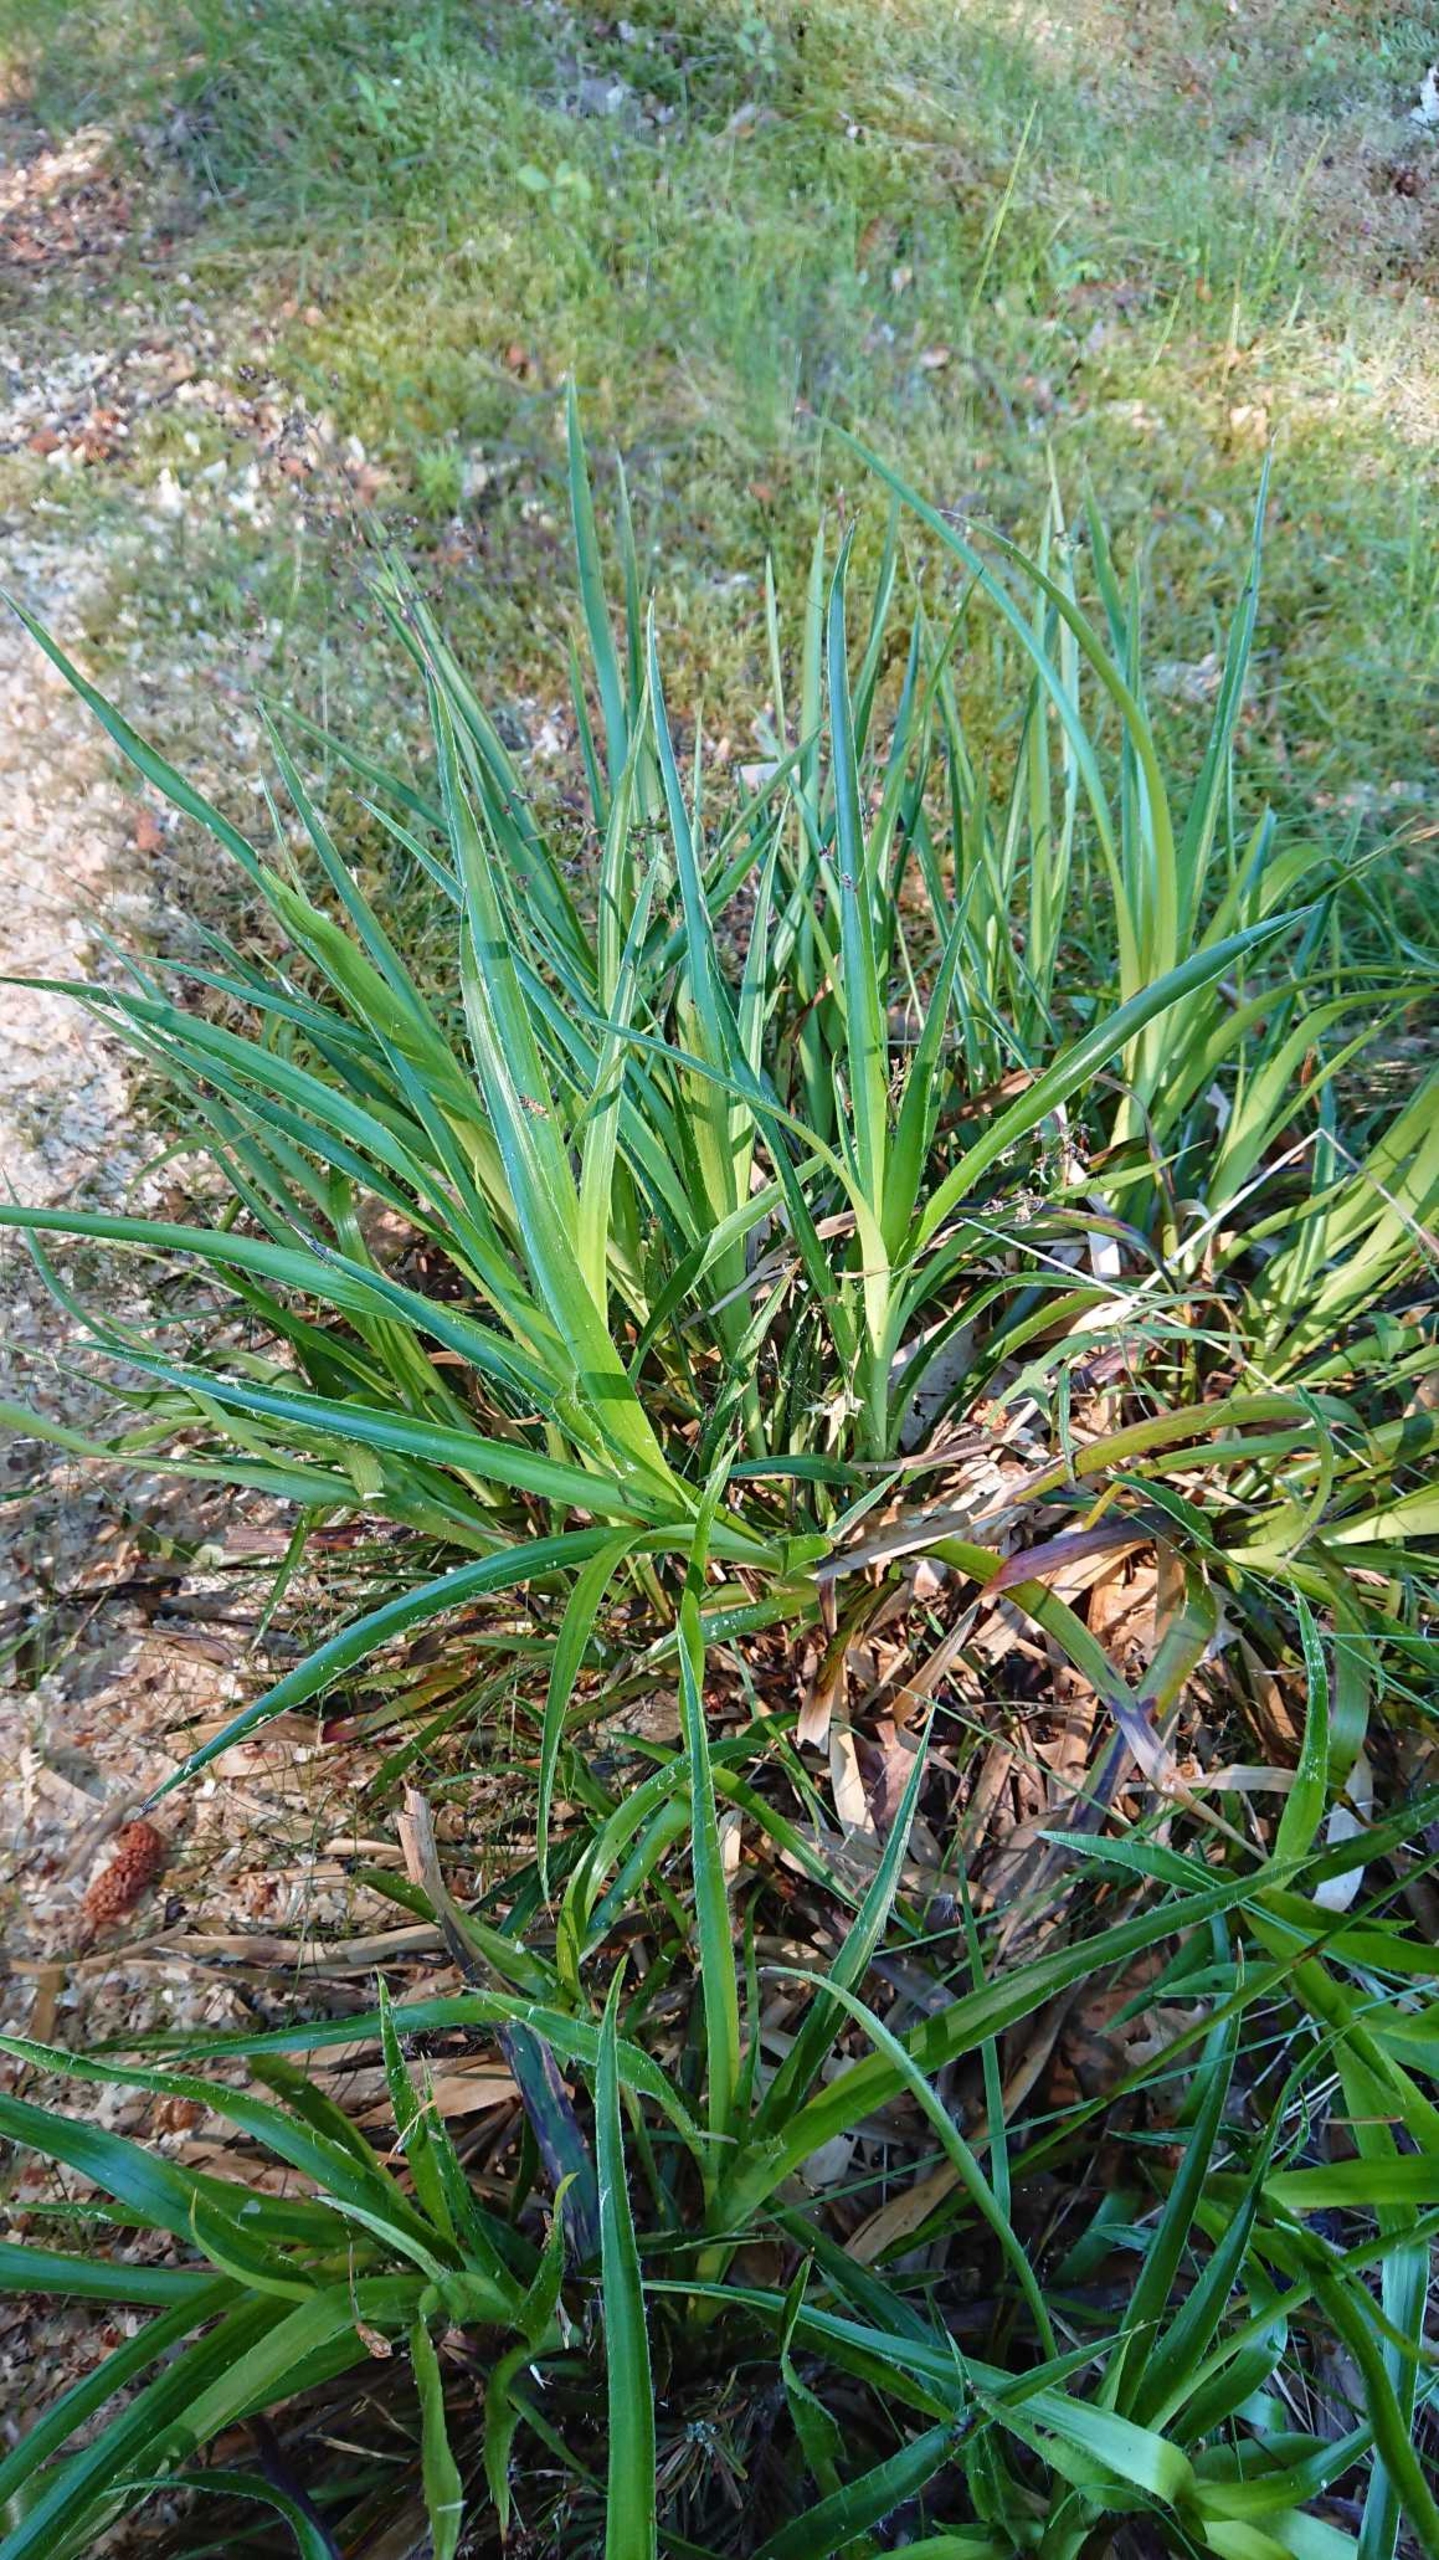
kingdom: Plantae
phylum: Tracheophyta
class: Liliopsida
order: Poales
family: Juncaceae
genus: Luzula
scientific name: Luzula sylvatica
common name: Stor frytle
